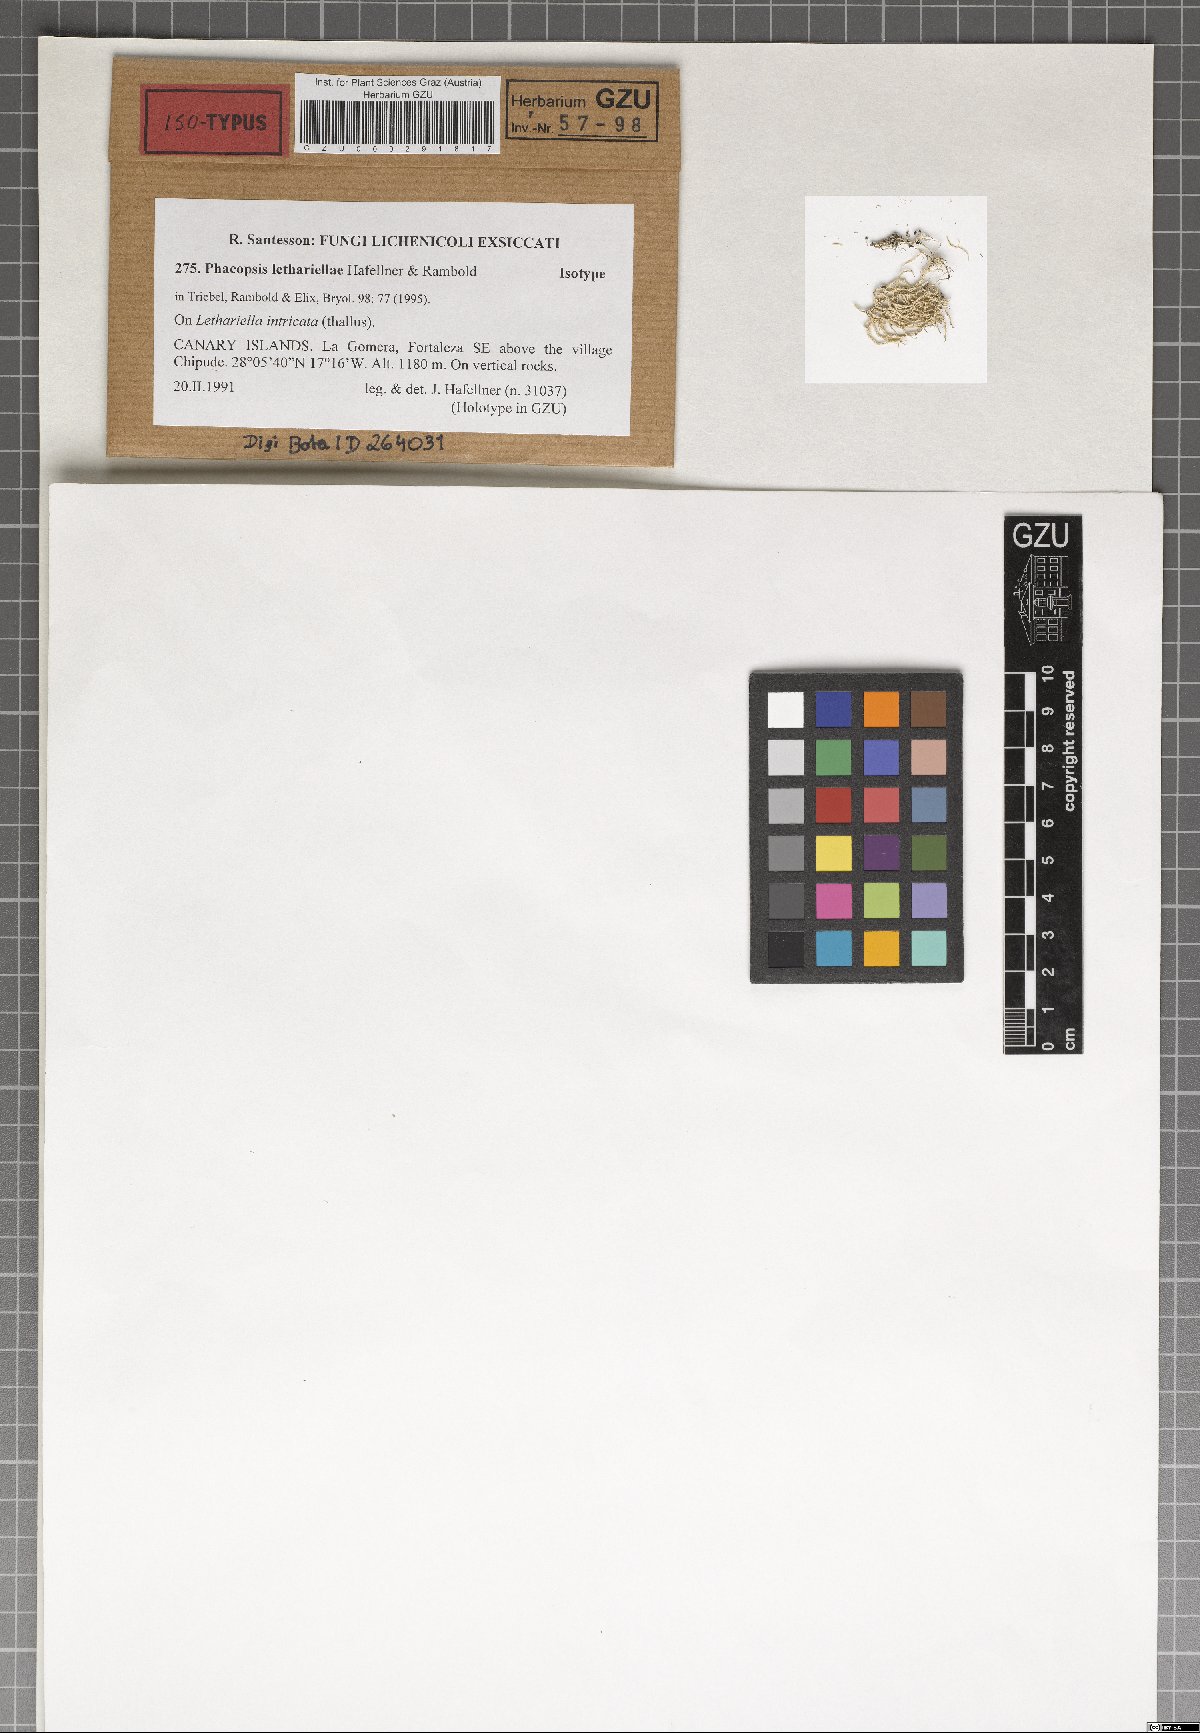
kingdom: Fungi
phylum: Ascomycota
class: Lecanoromycetes
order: Lecanorales
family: Parmeliaceae
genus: Phacopsis
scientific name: Phacopsis
